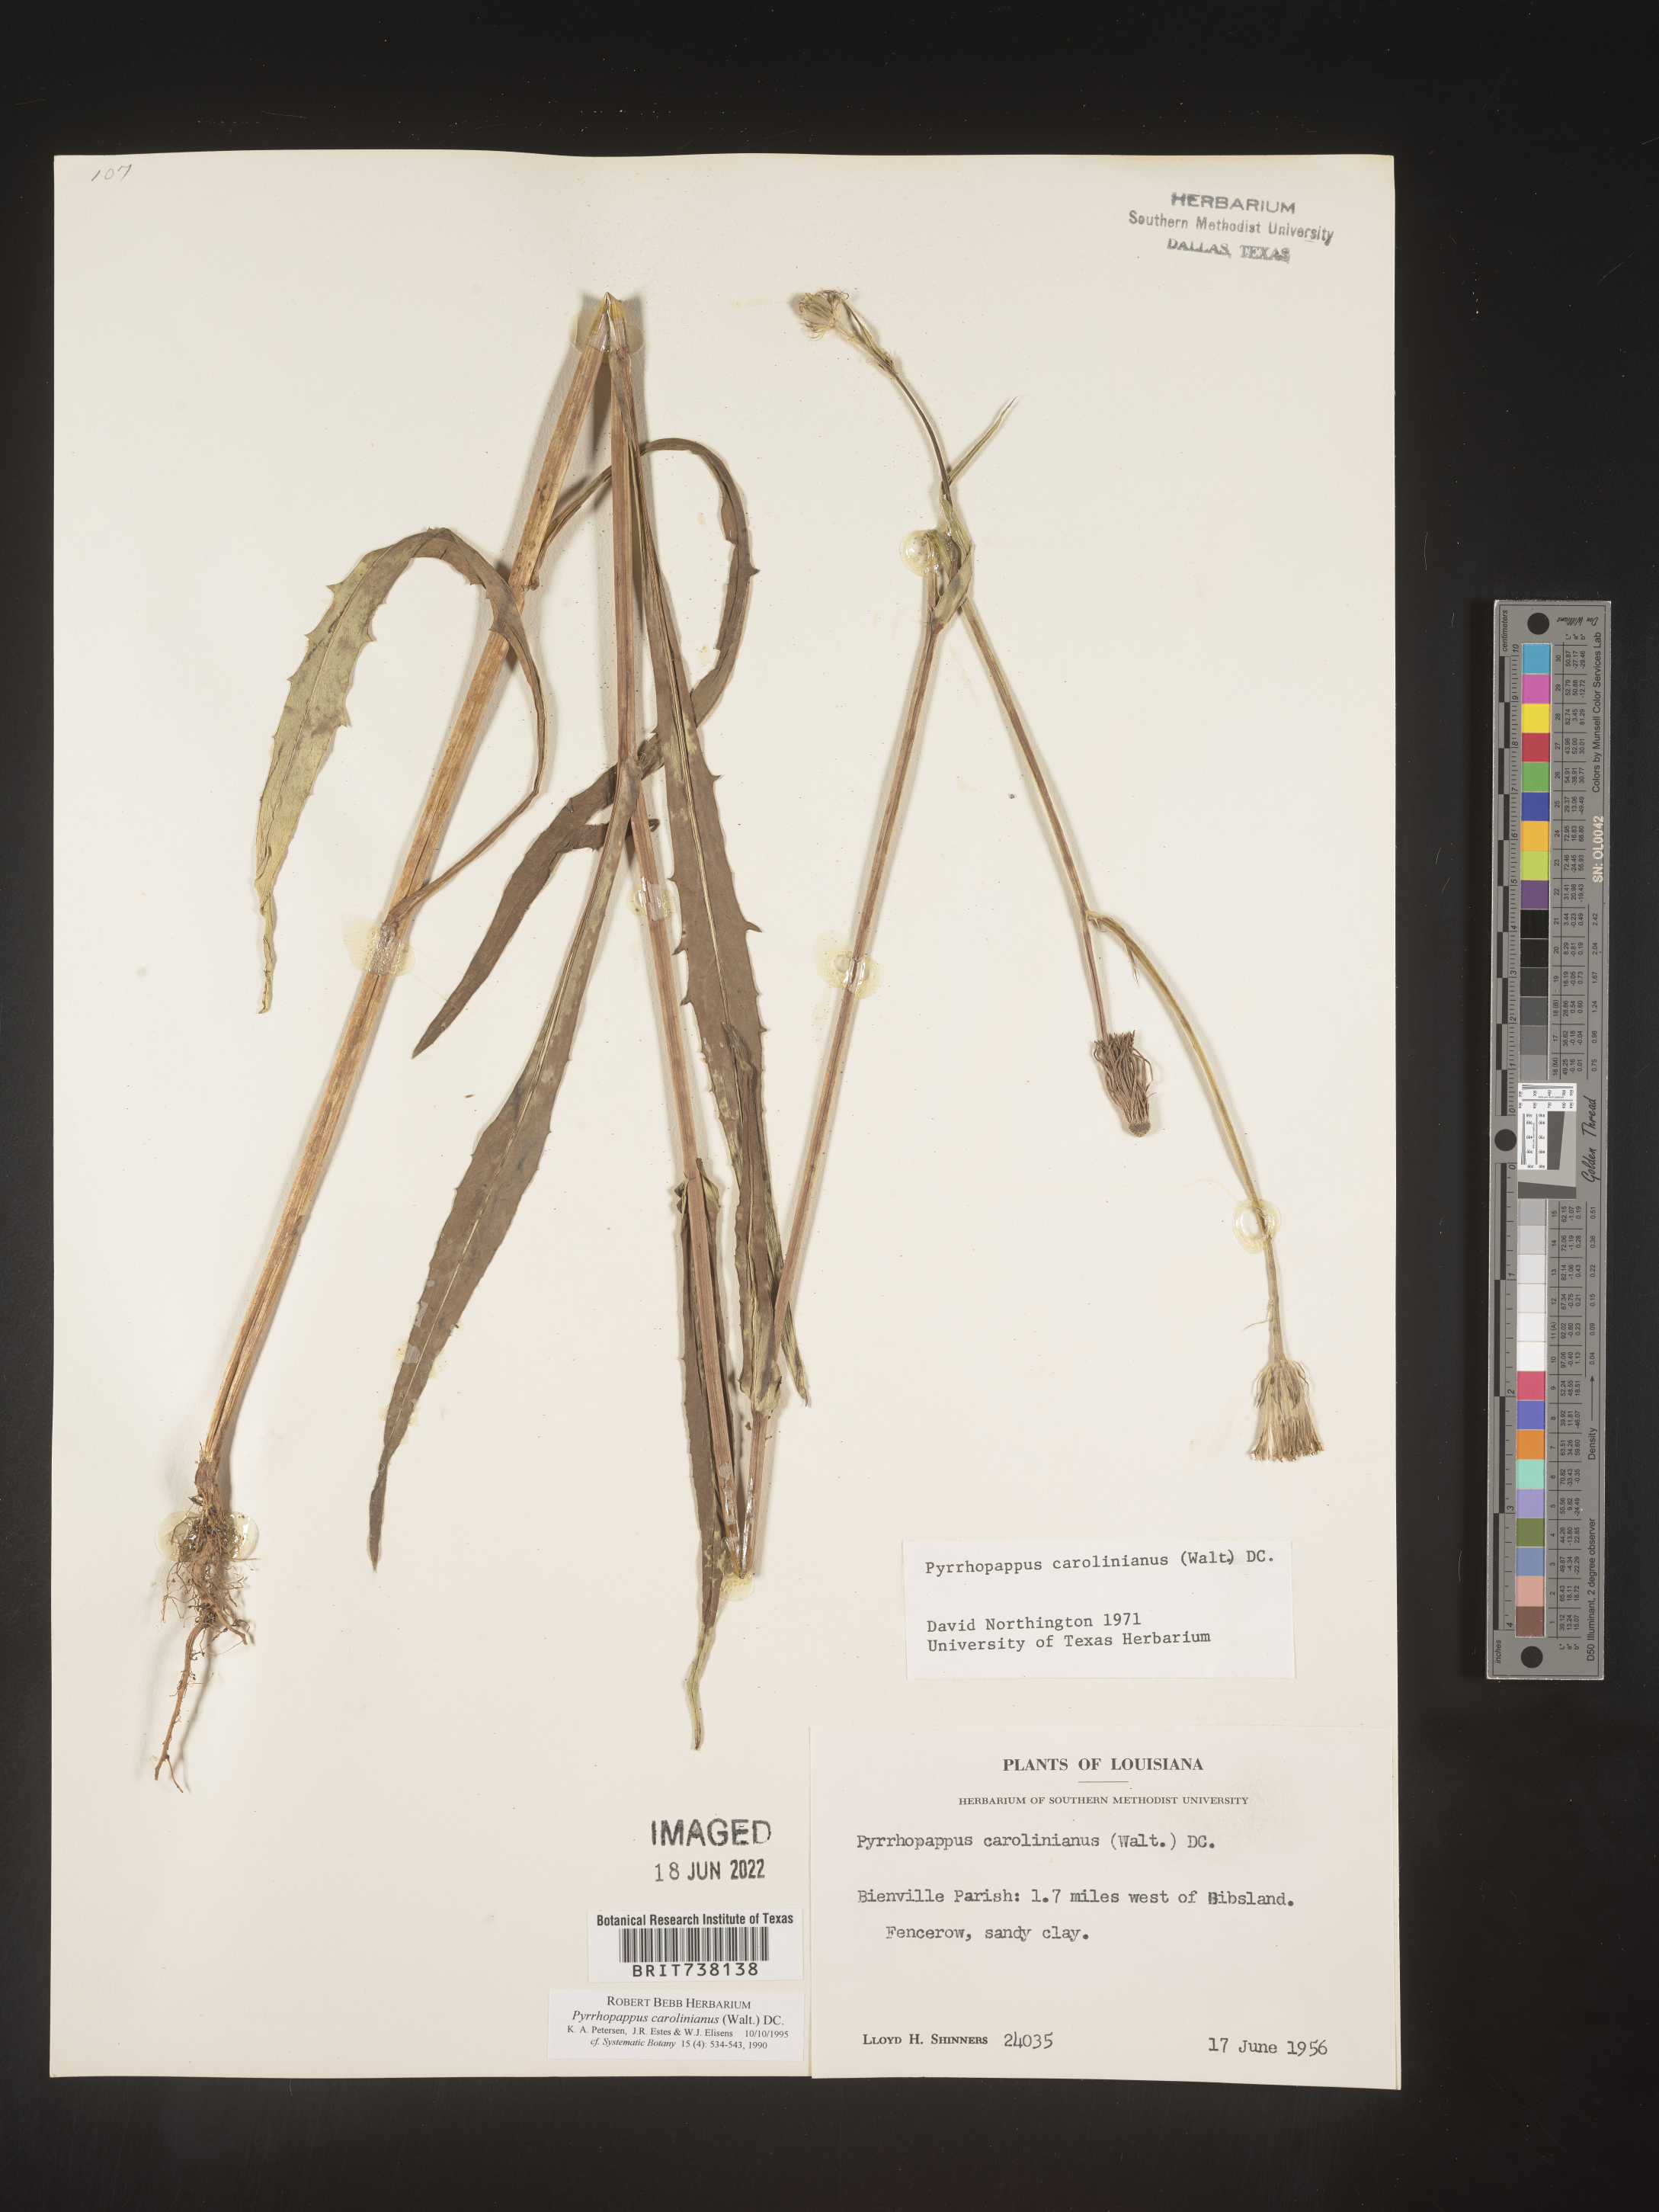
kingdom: Plantae
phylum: Tracheophyta
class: Magnoliopsida
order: Asterales
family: Asteraceae
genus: Pyrrhopappus
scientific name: Pyrrhopappus carolinianus
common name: Carolina desert-chicory
